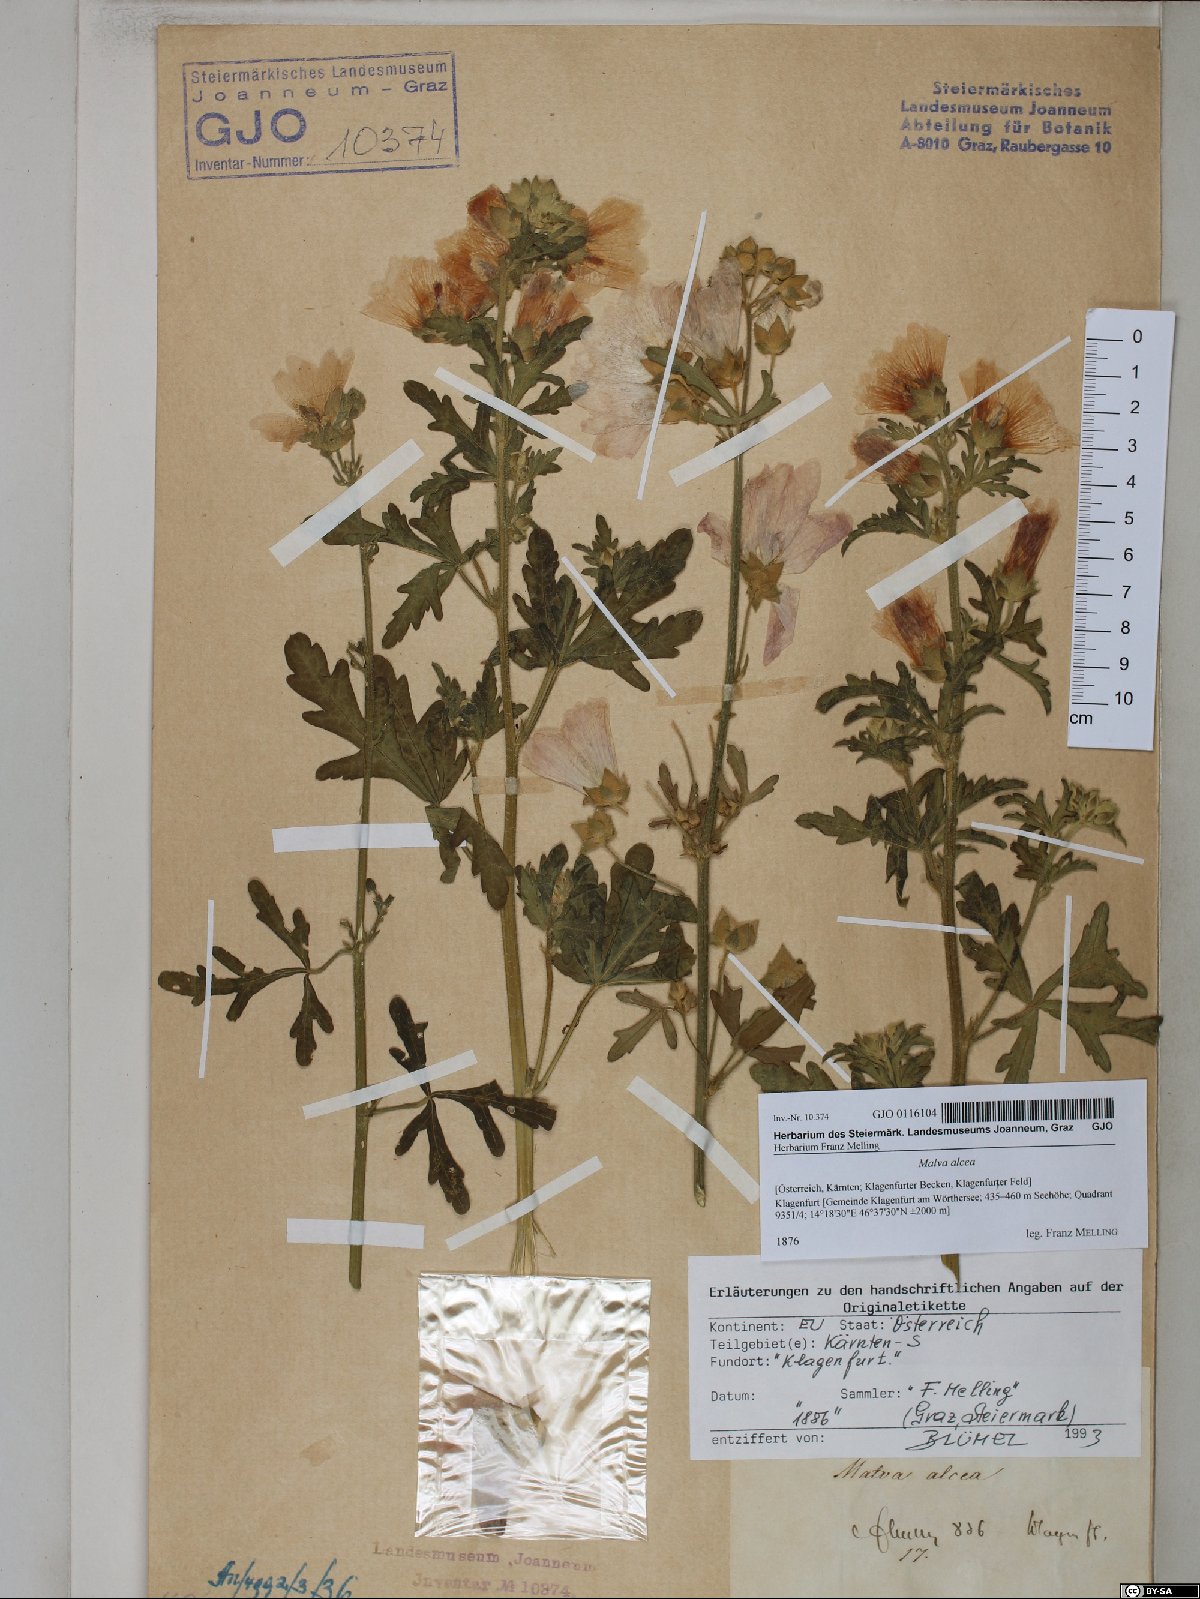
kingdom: Plantae
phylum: Tracheophyta
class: Magnoliopsida
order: Malvales
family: Malvaceae
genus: Malva
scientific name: Malva alcea
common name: Greater musk-mallow
